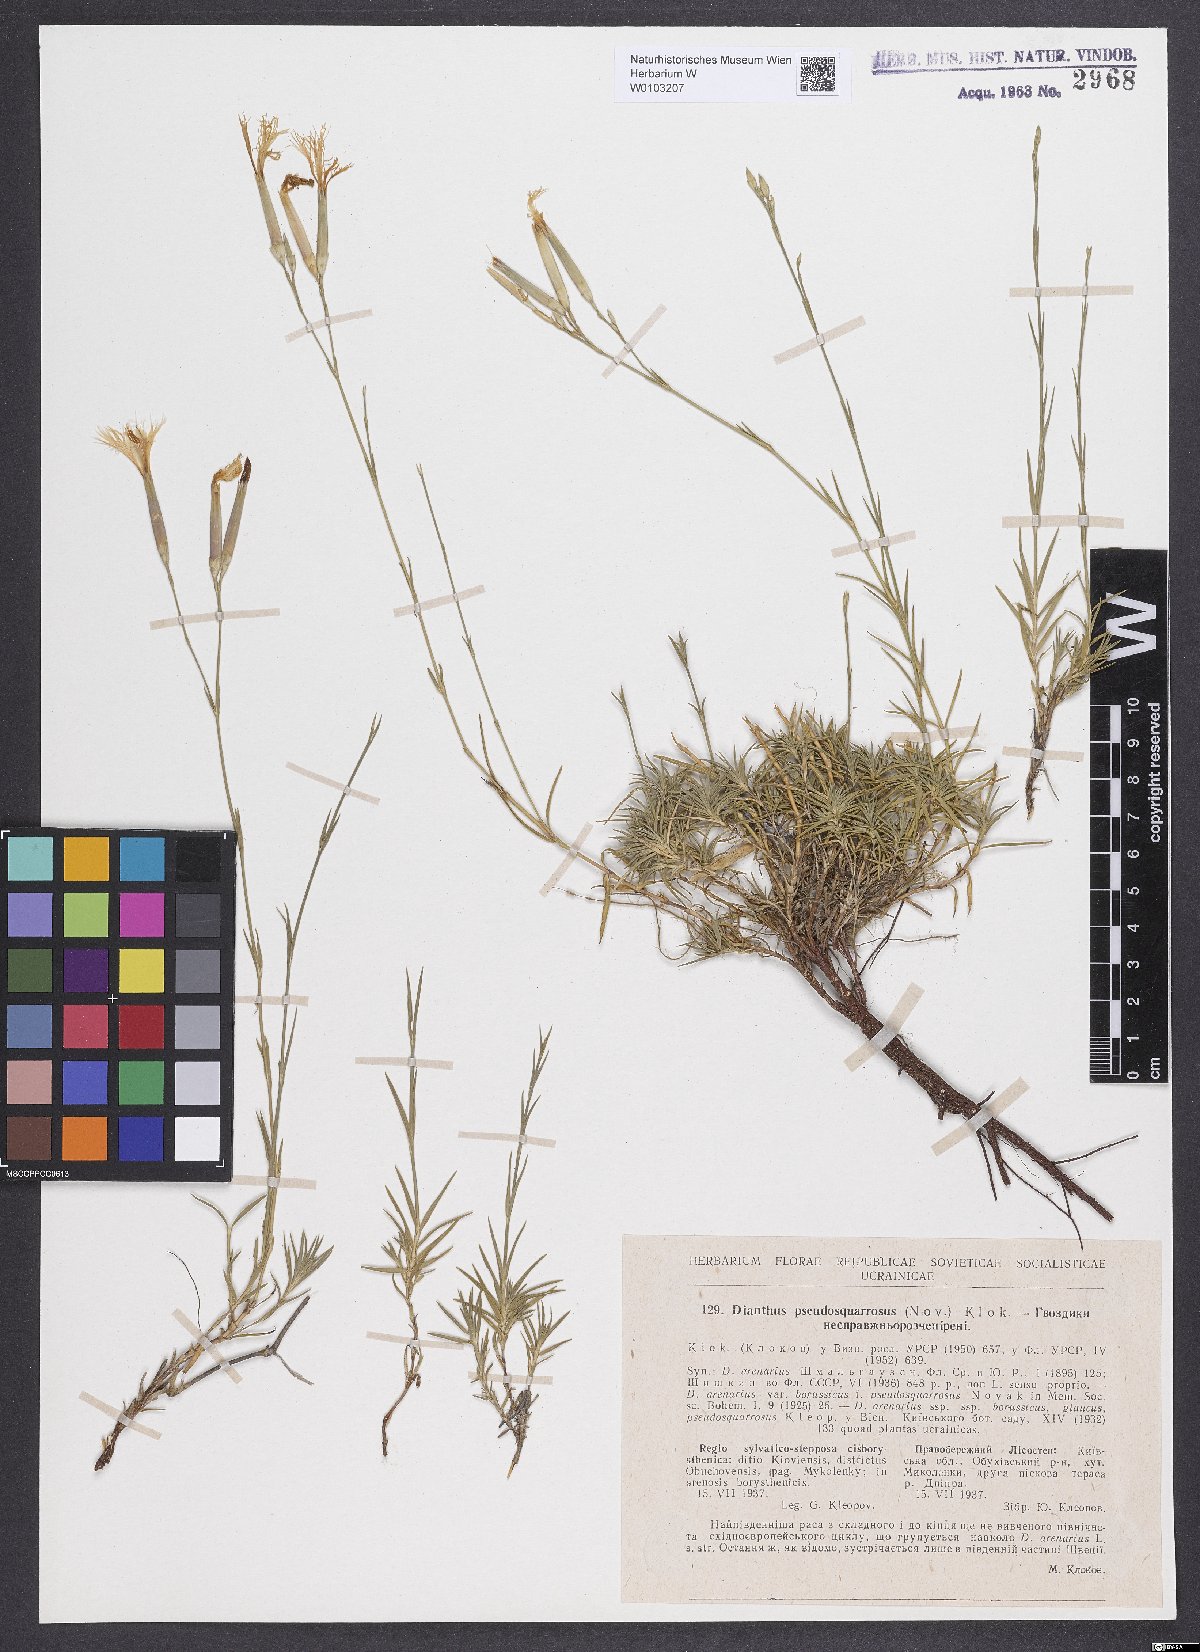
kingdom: Plantae
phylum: Tracheophyta
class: Magnoliopsida
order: Caryophyllales
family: Caryophyllaceae
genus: Dianthus
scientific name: Dianthus arenarius
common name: Stone pink
